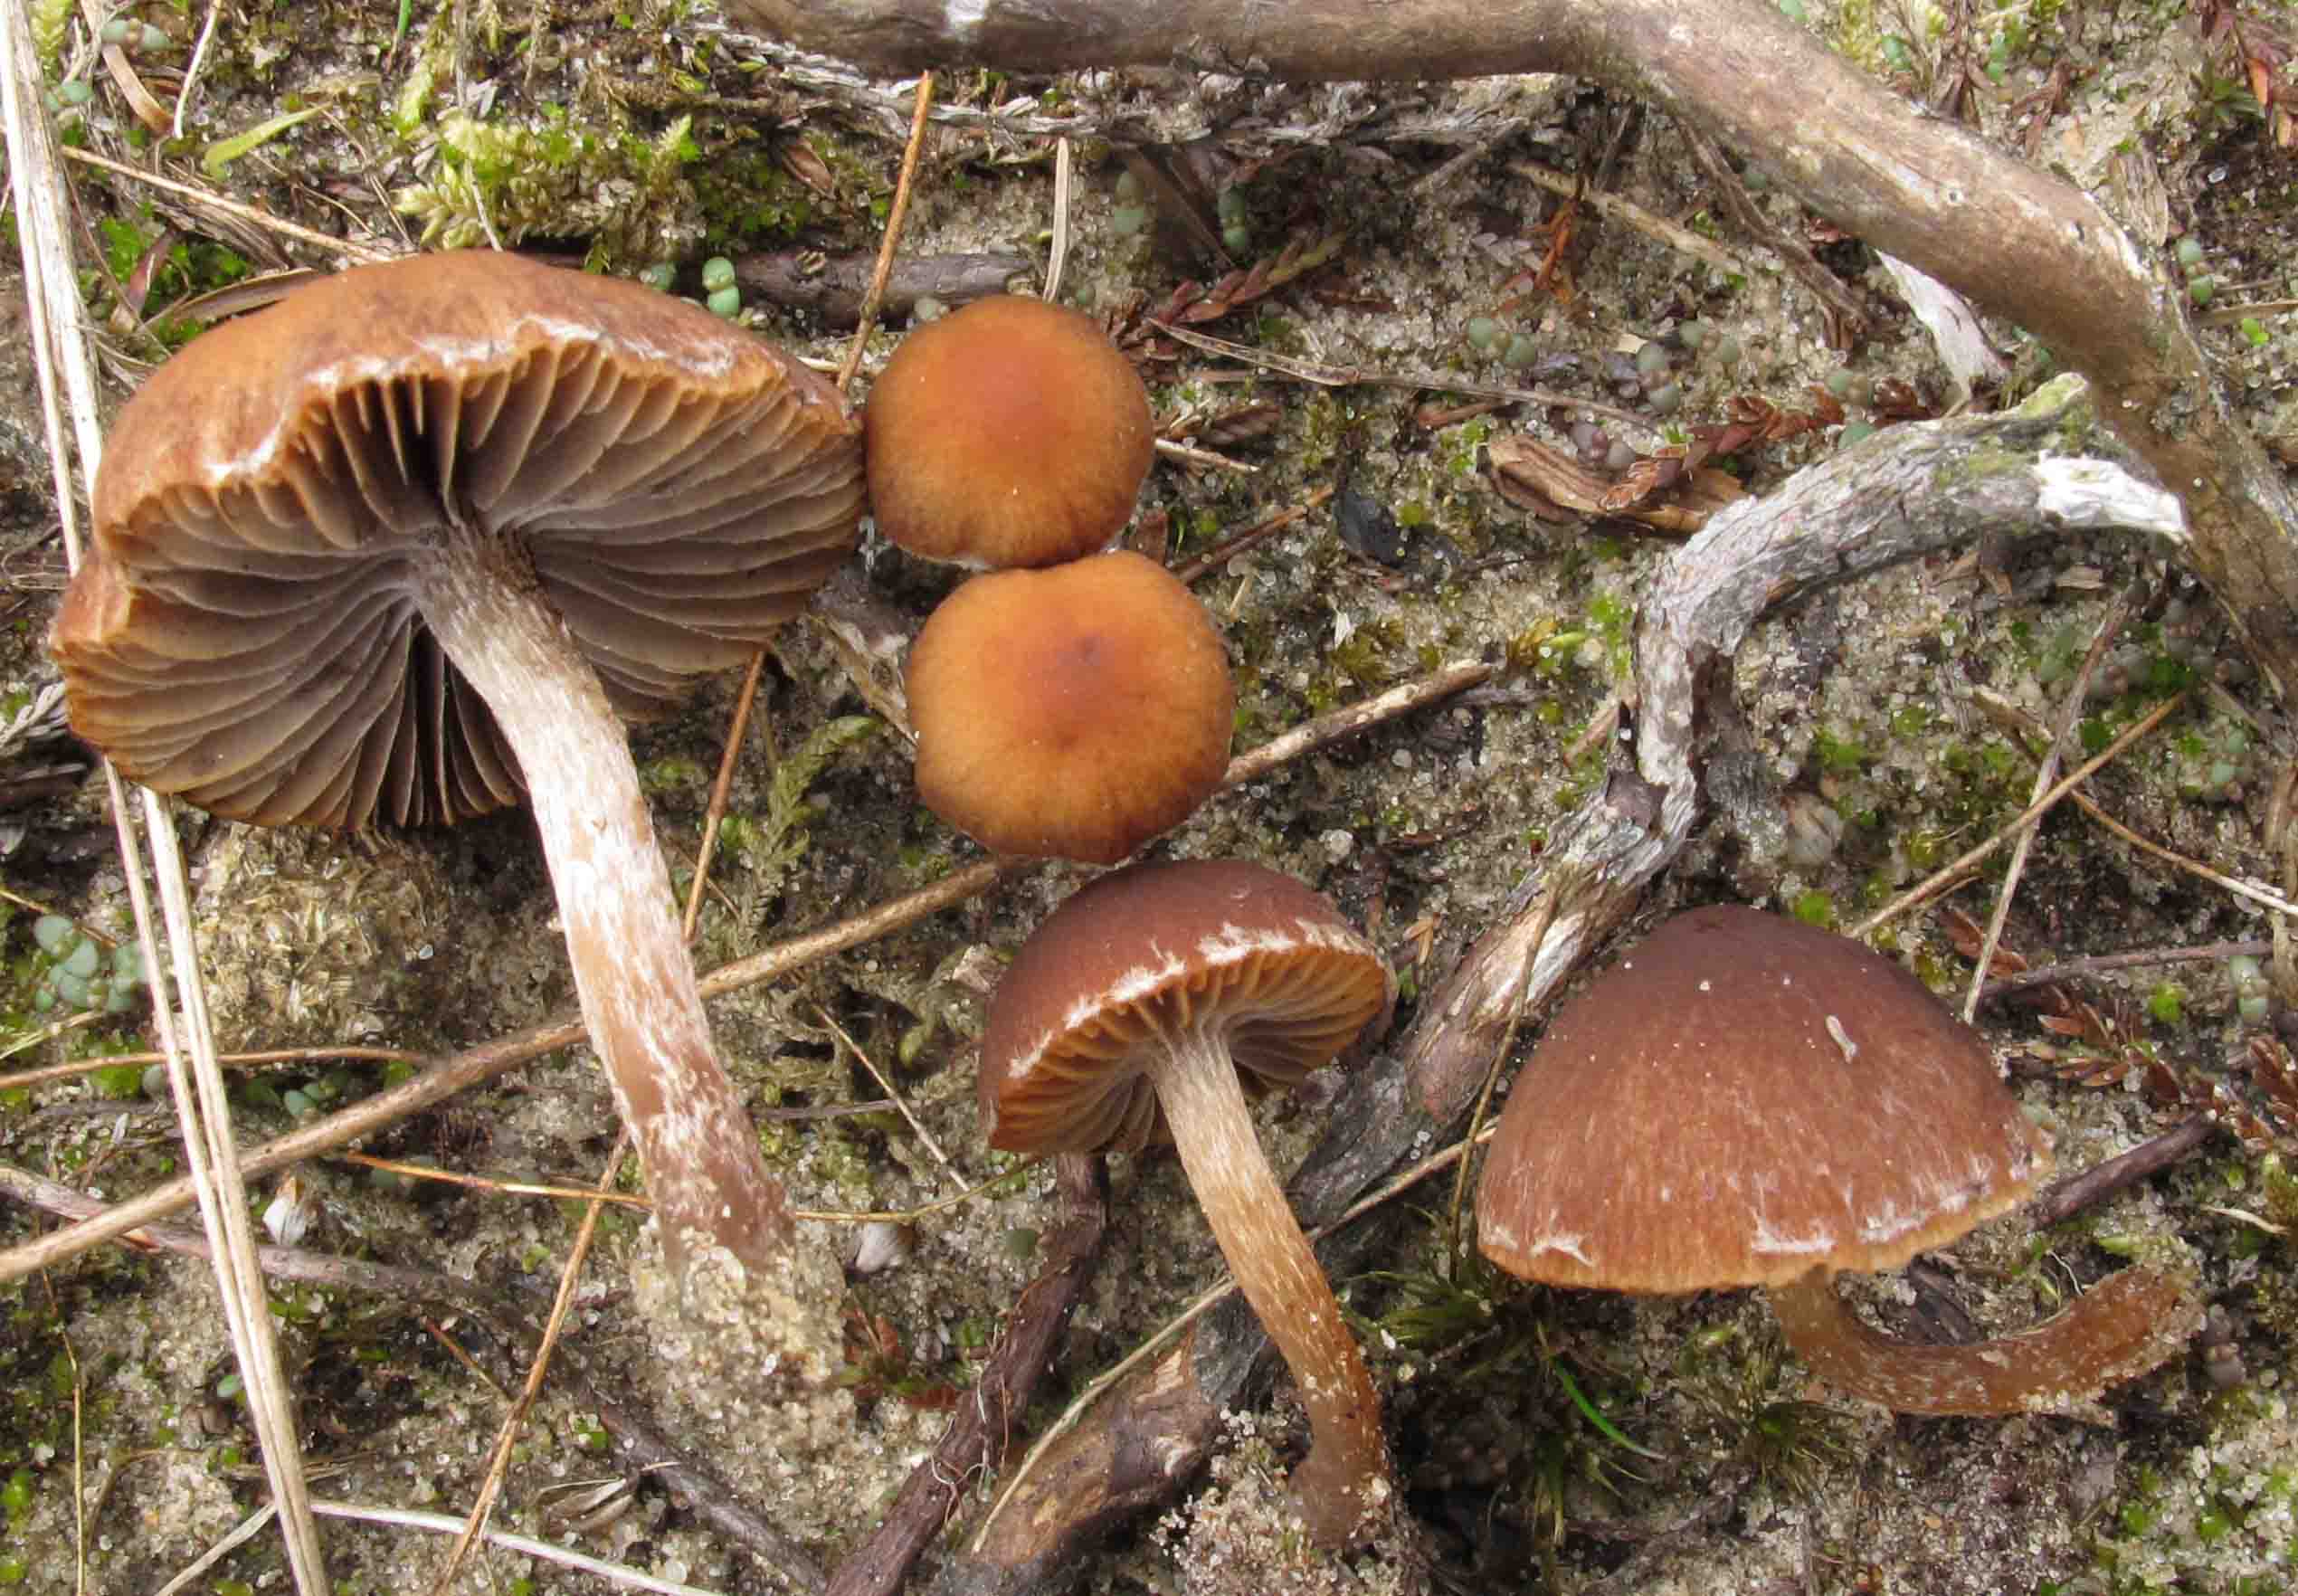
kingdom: Fungi
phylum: Basidiomycota
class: Agaricomycetes
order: Agaricales
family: Psathyrellaceae
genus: Psathyrella
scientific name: Psathyrella dicrani
